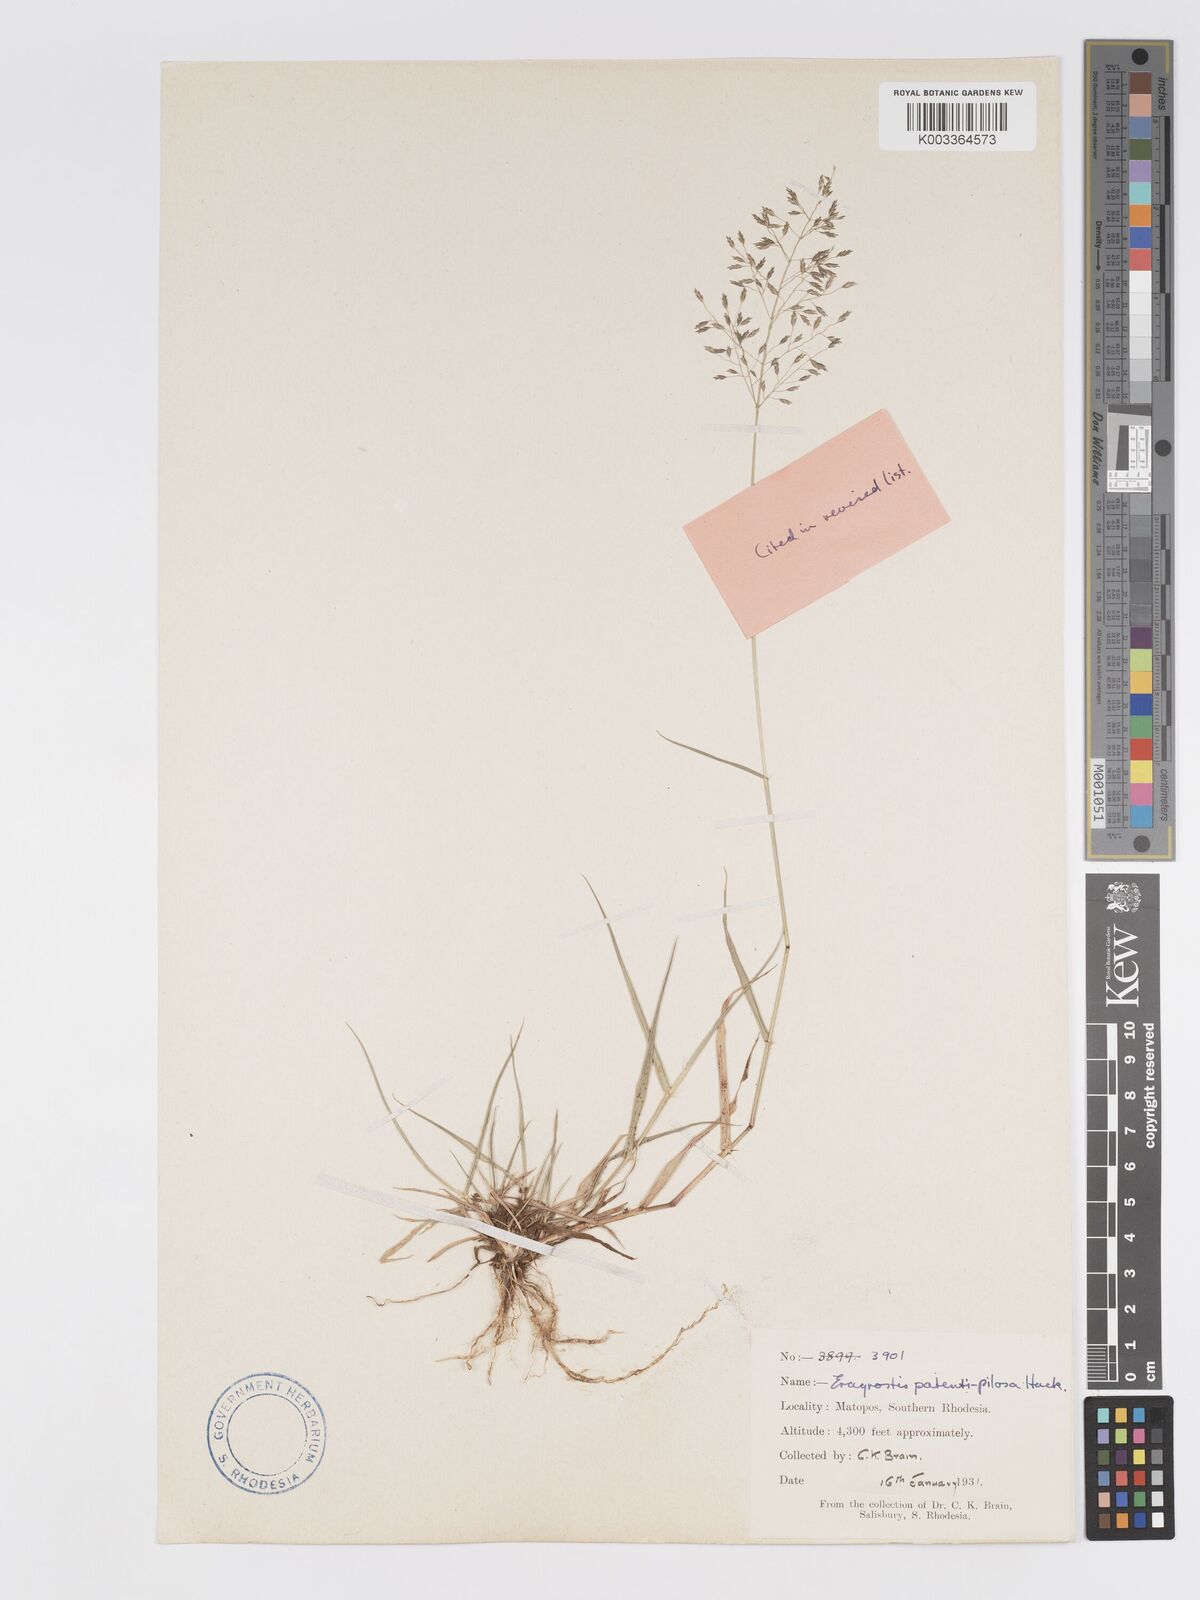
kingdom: Plantae
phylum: Tracheophyta
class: Liliopsida
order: Poales
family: Poaceae
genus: Eragrostis
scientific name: Eragrostis patentipilosa
